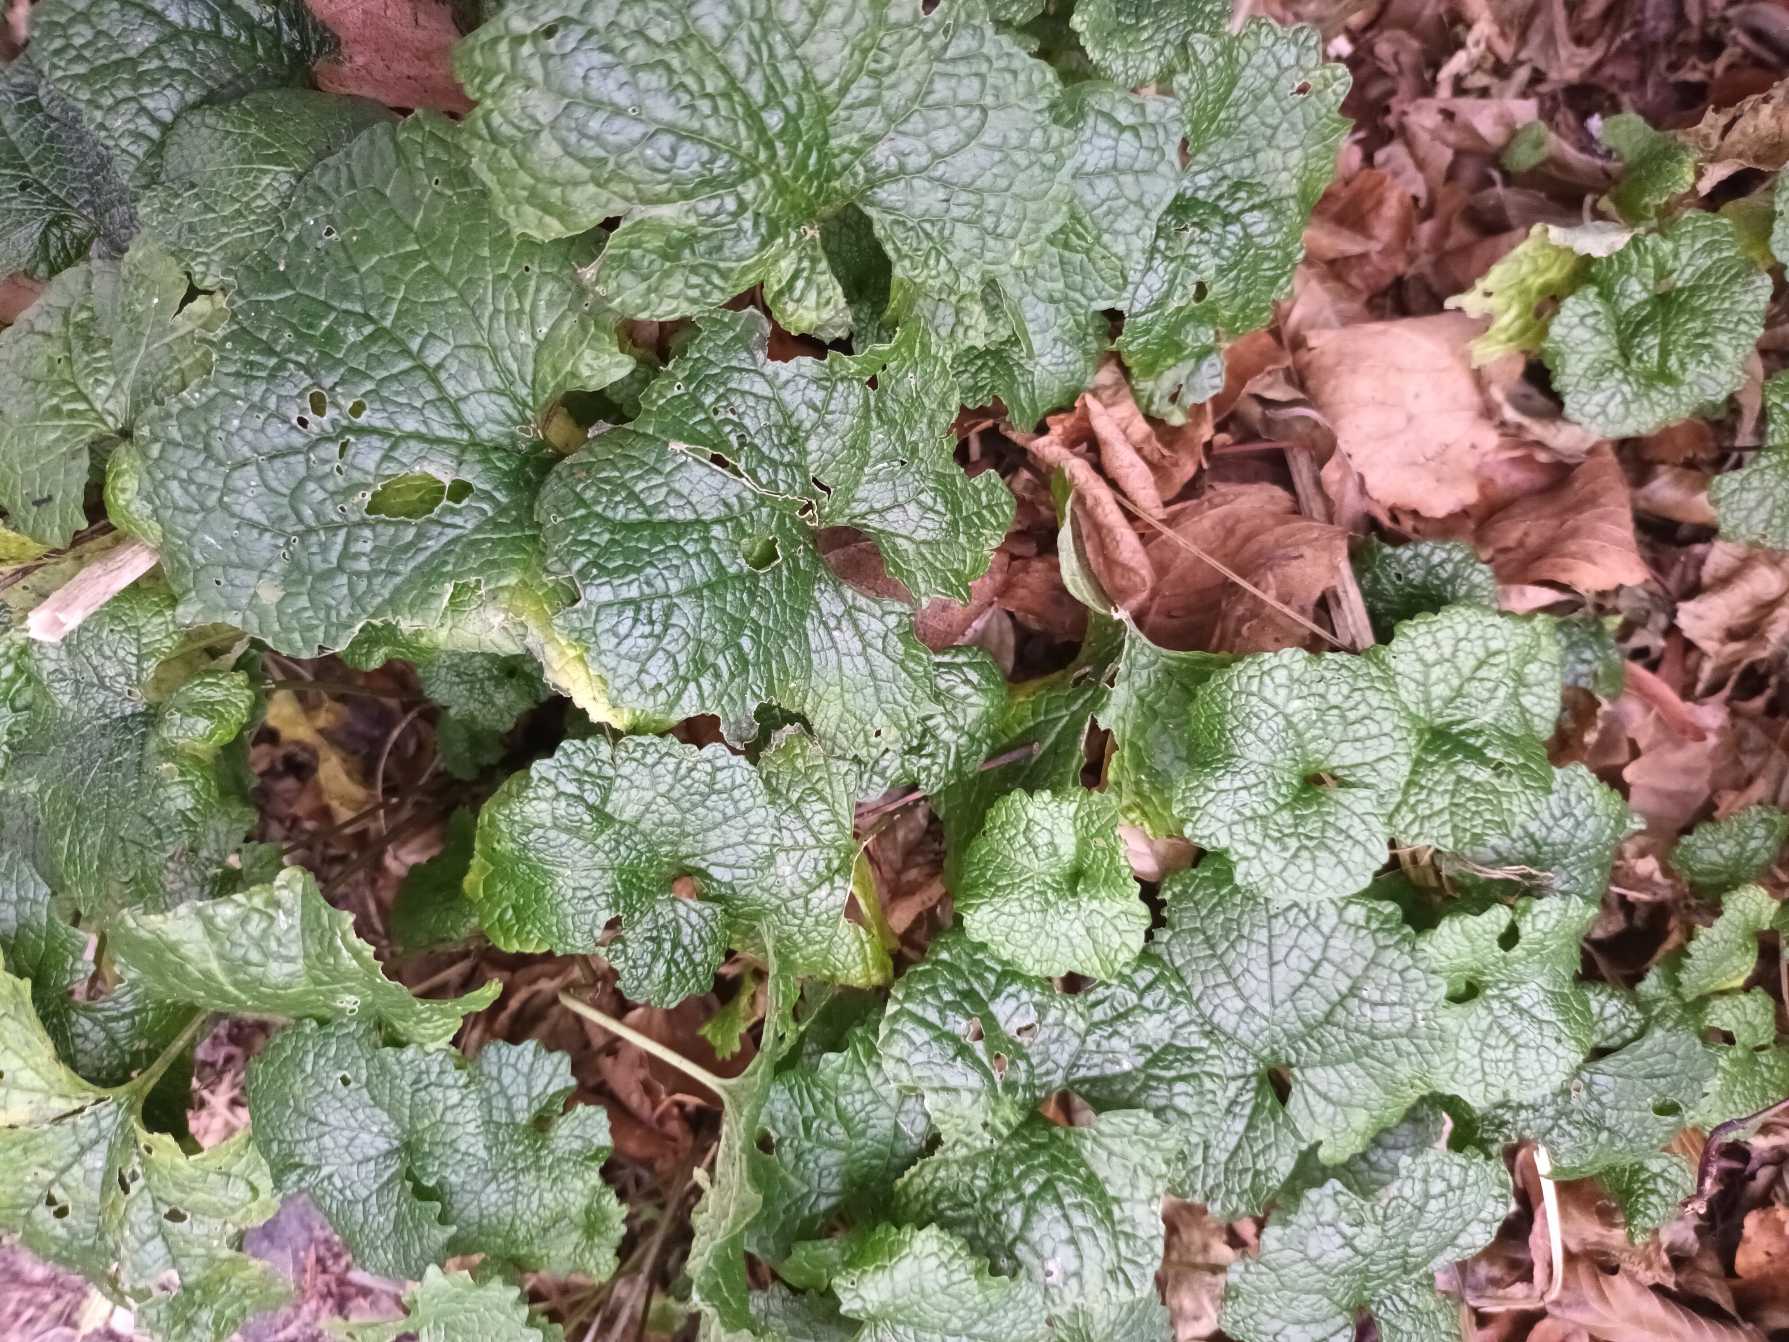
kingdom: Plantae
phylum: Tracheophyta
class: Magnoliopsida
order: Brassicales
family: Brassicaceae
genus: Alliaria
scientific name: Alliaria petiolata
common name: Løgkarse
